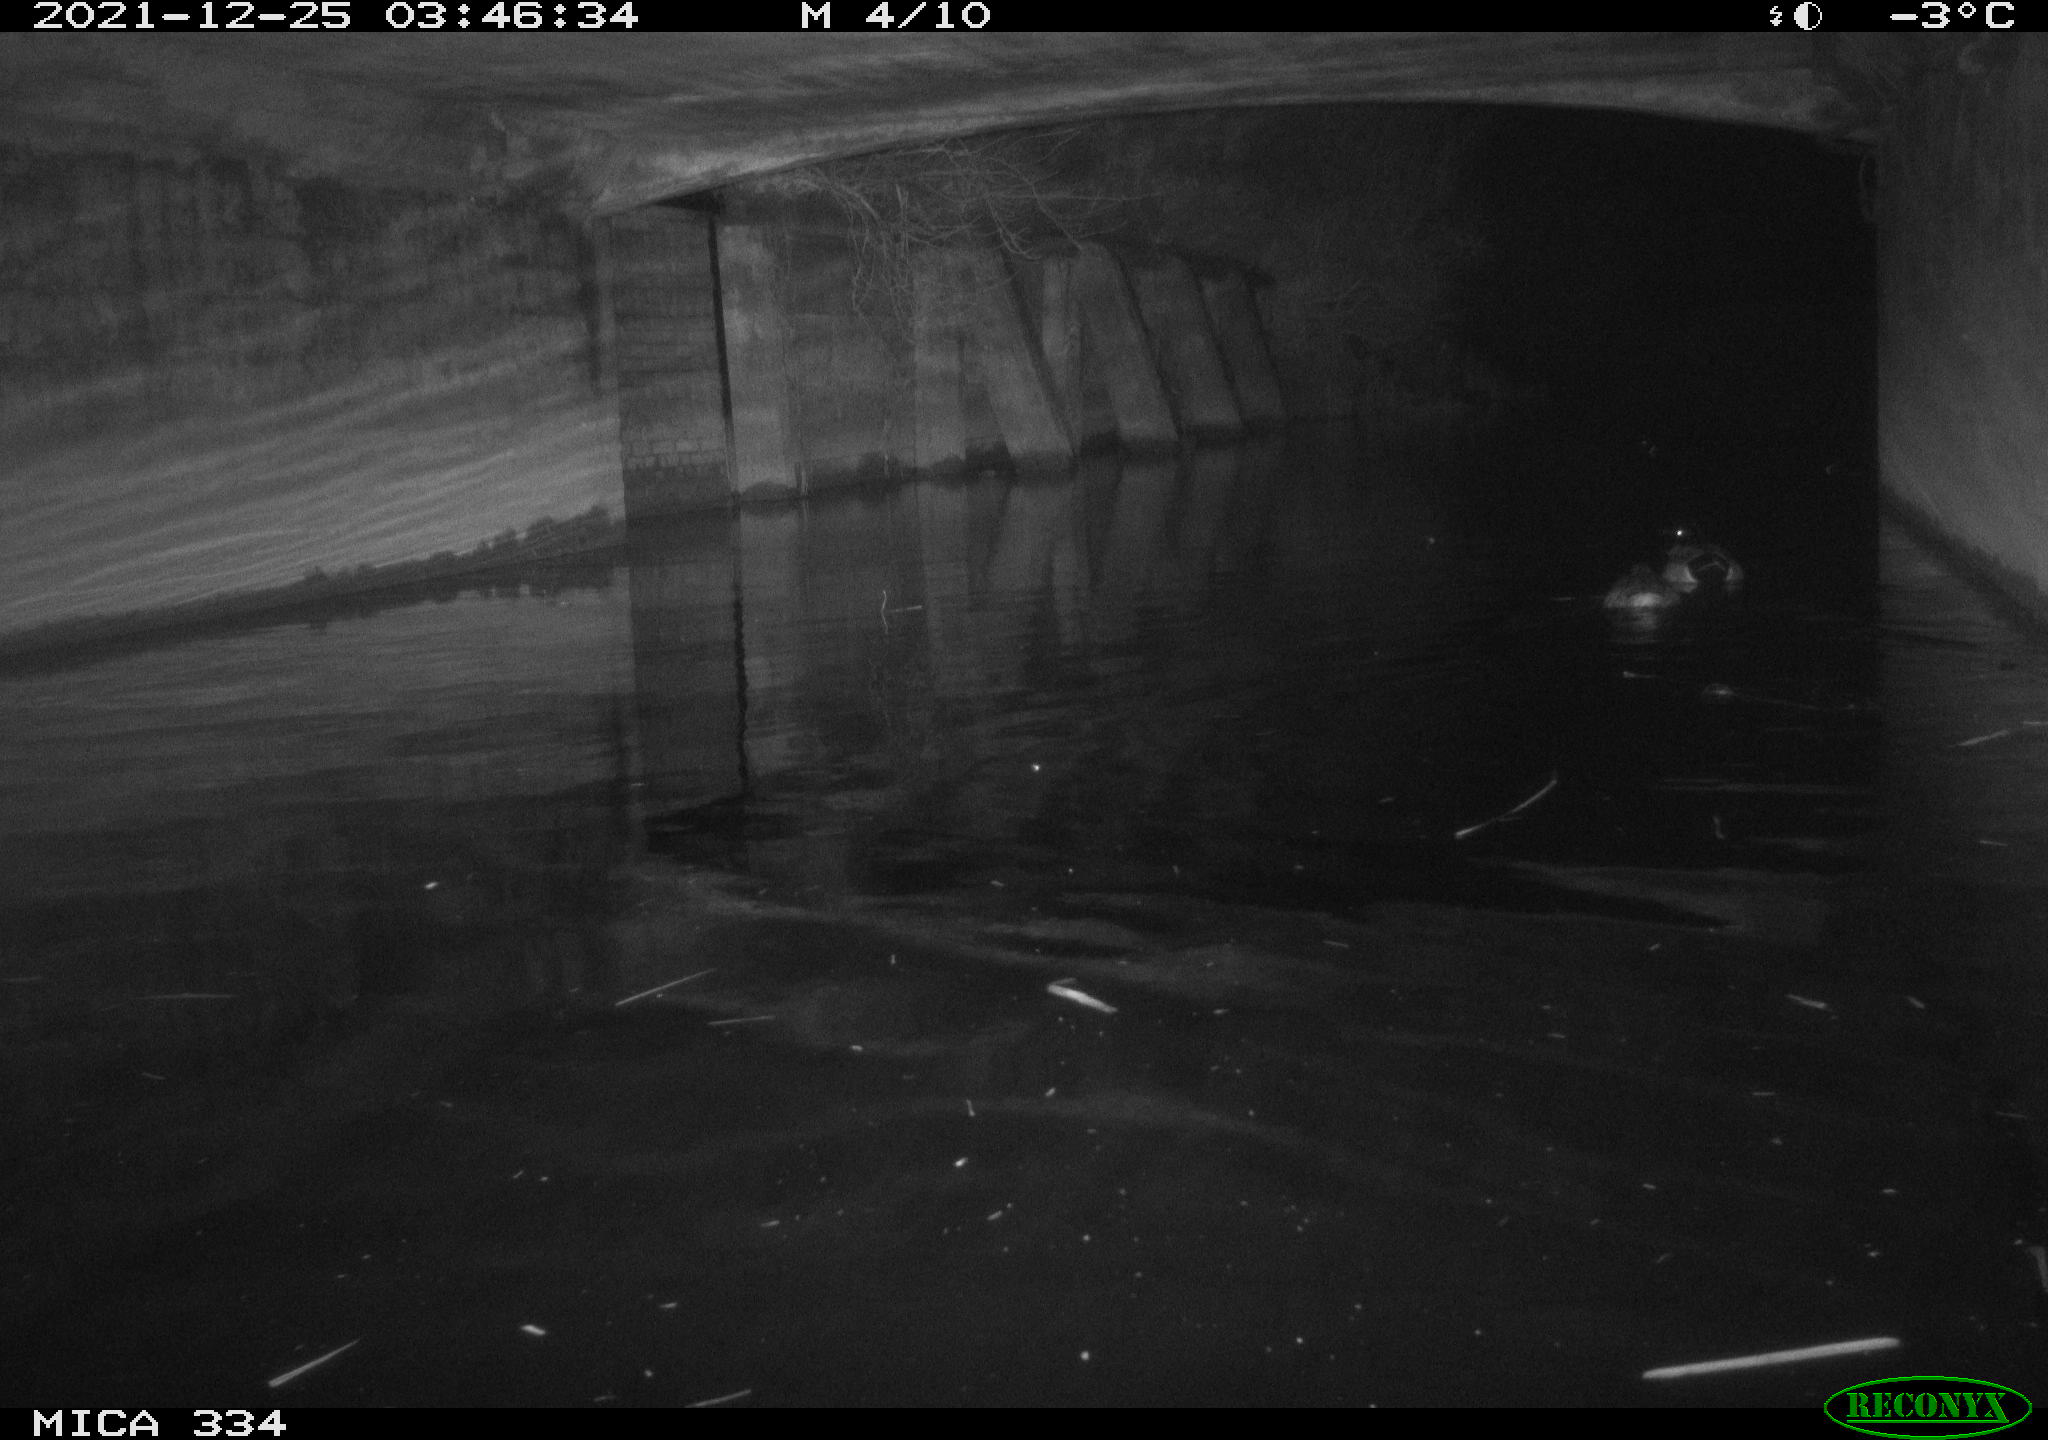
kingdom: Animalia
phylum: Chordata
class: Aves
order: Anseriformes
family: Anatidae
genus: Anas
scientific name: Anas platyrhynchos
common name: Mallard
